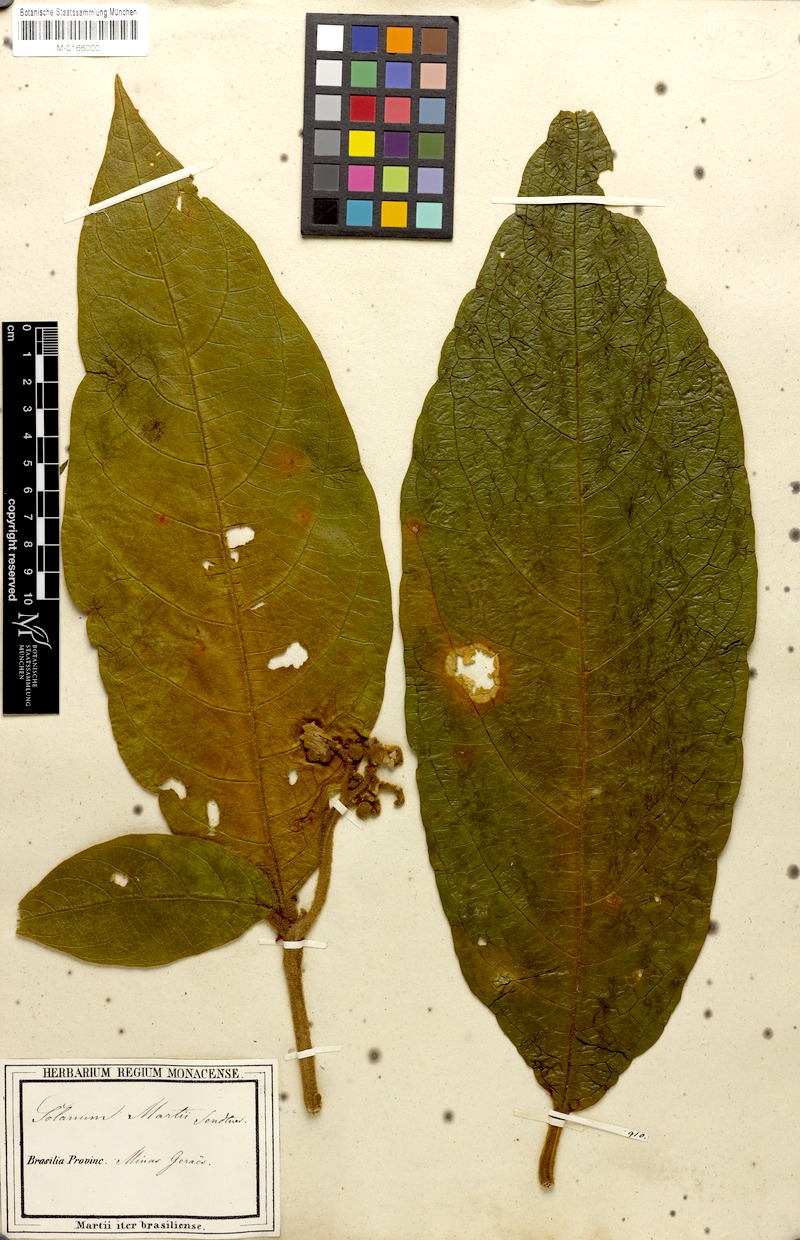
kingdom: Plantae
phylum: Tracheophyta
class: Magnoliopsida
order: Solanales
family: Solanaceae
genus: Solanum
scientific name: Solanum martii
